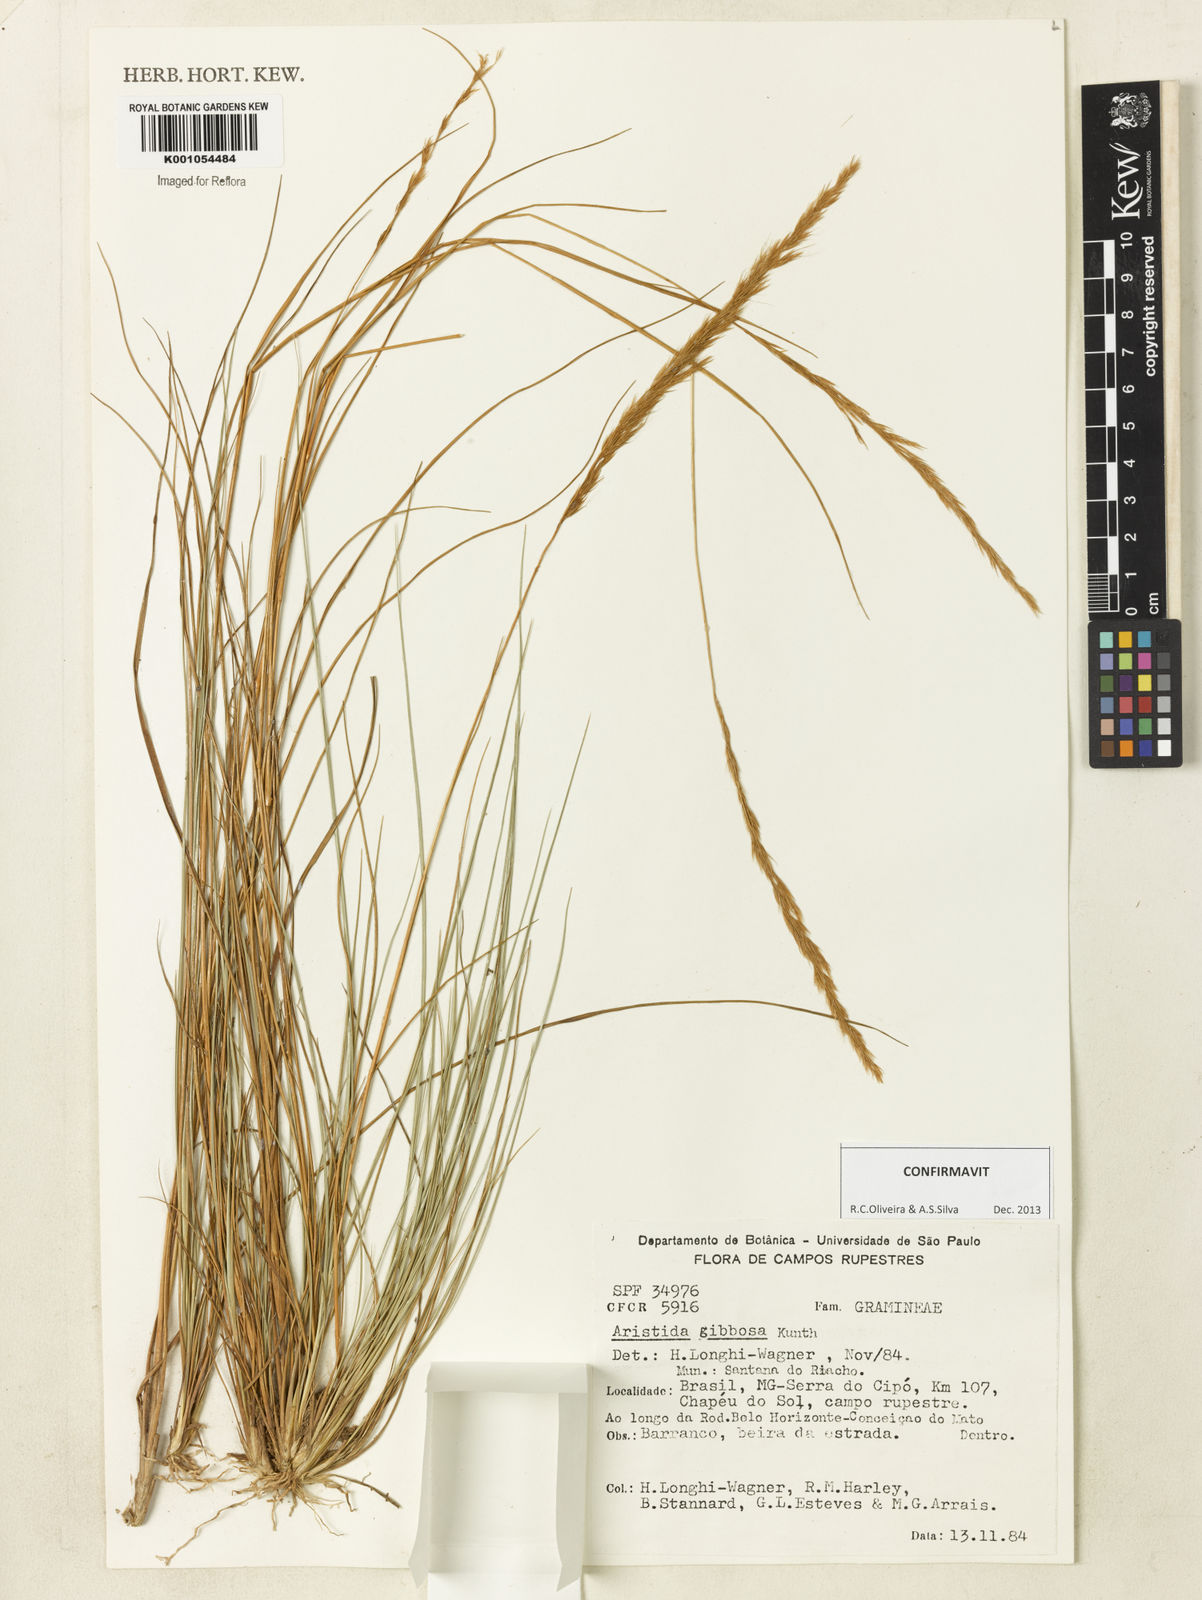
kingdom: Plantae
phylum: Tracheophyta
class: Liliopsida
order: Poales
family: Poaceae
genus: Aristida
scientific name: Aristida gibbosa
